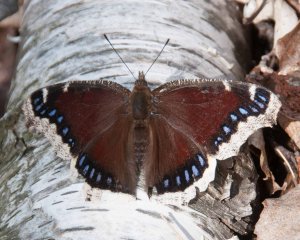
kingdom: Animalia
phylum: Arthropoda
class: Insecta
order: Lepidoptera
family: Nymphalidae
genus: Nymphalis
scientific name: Nymphalis antiopa
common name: Mourning Cloak
